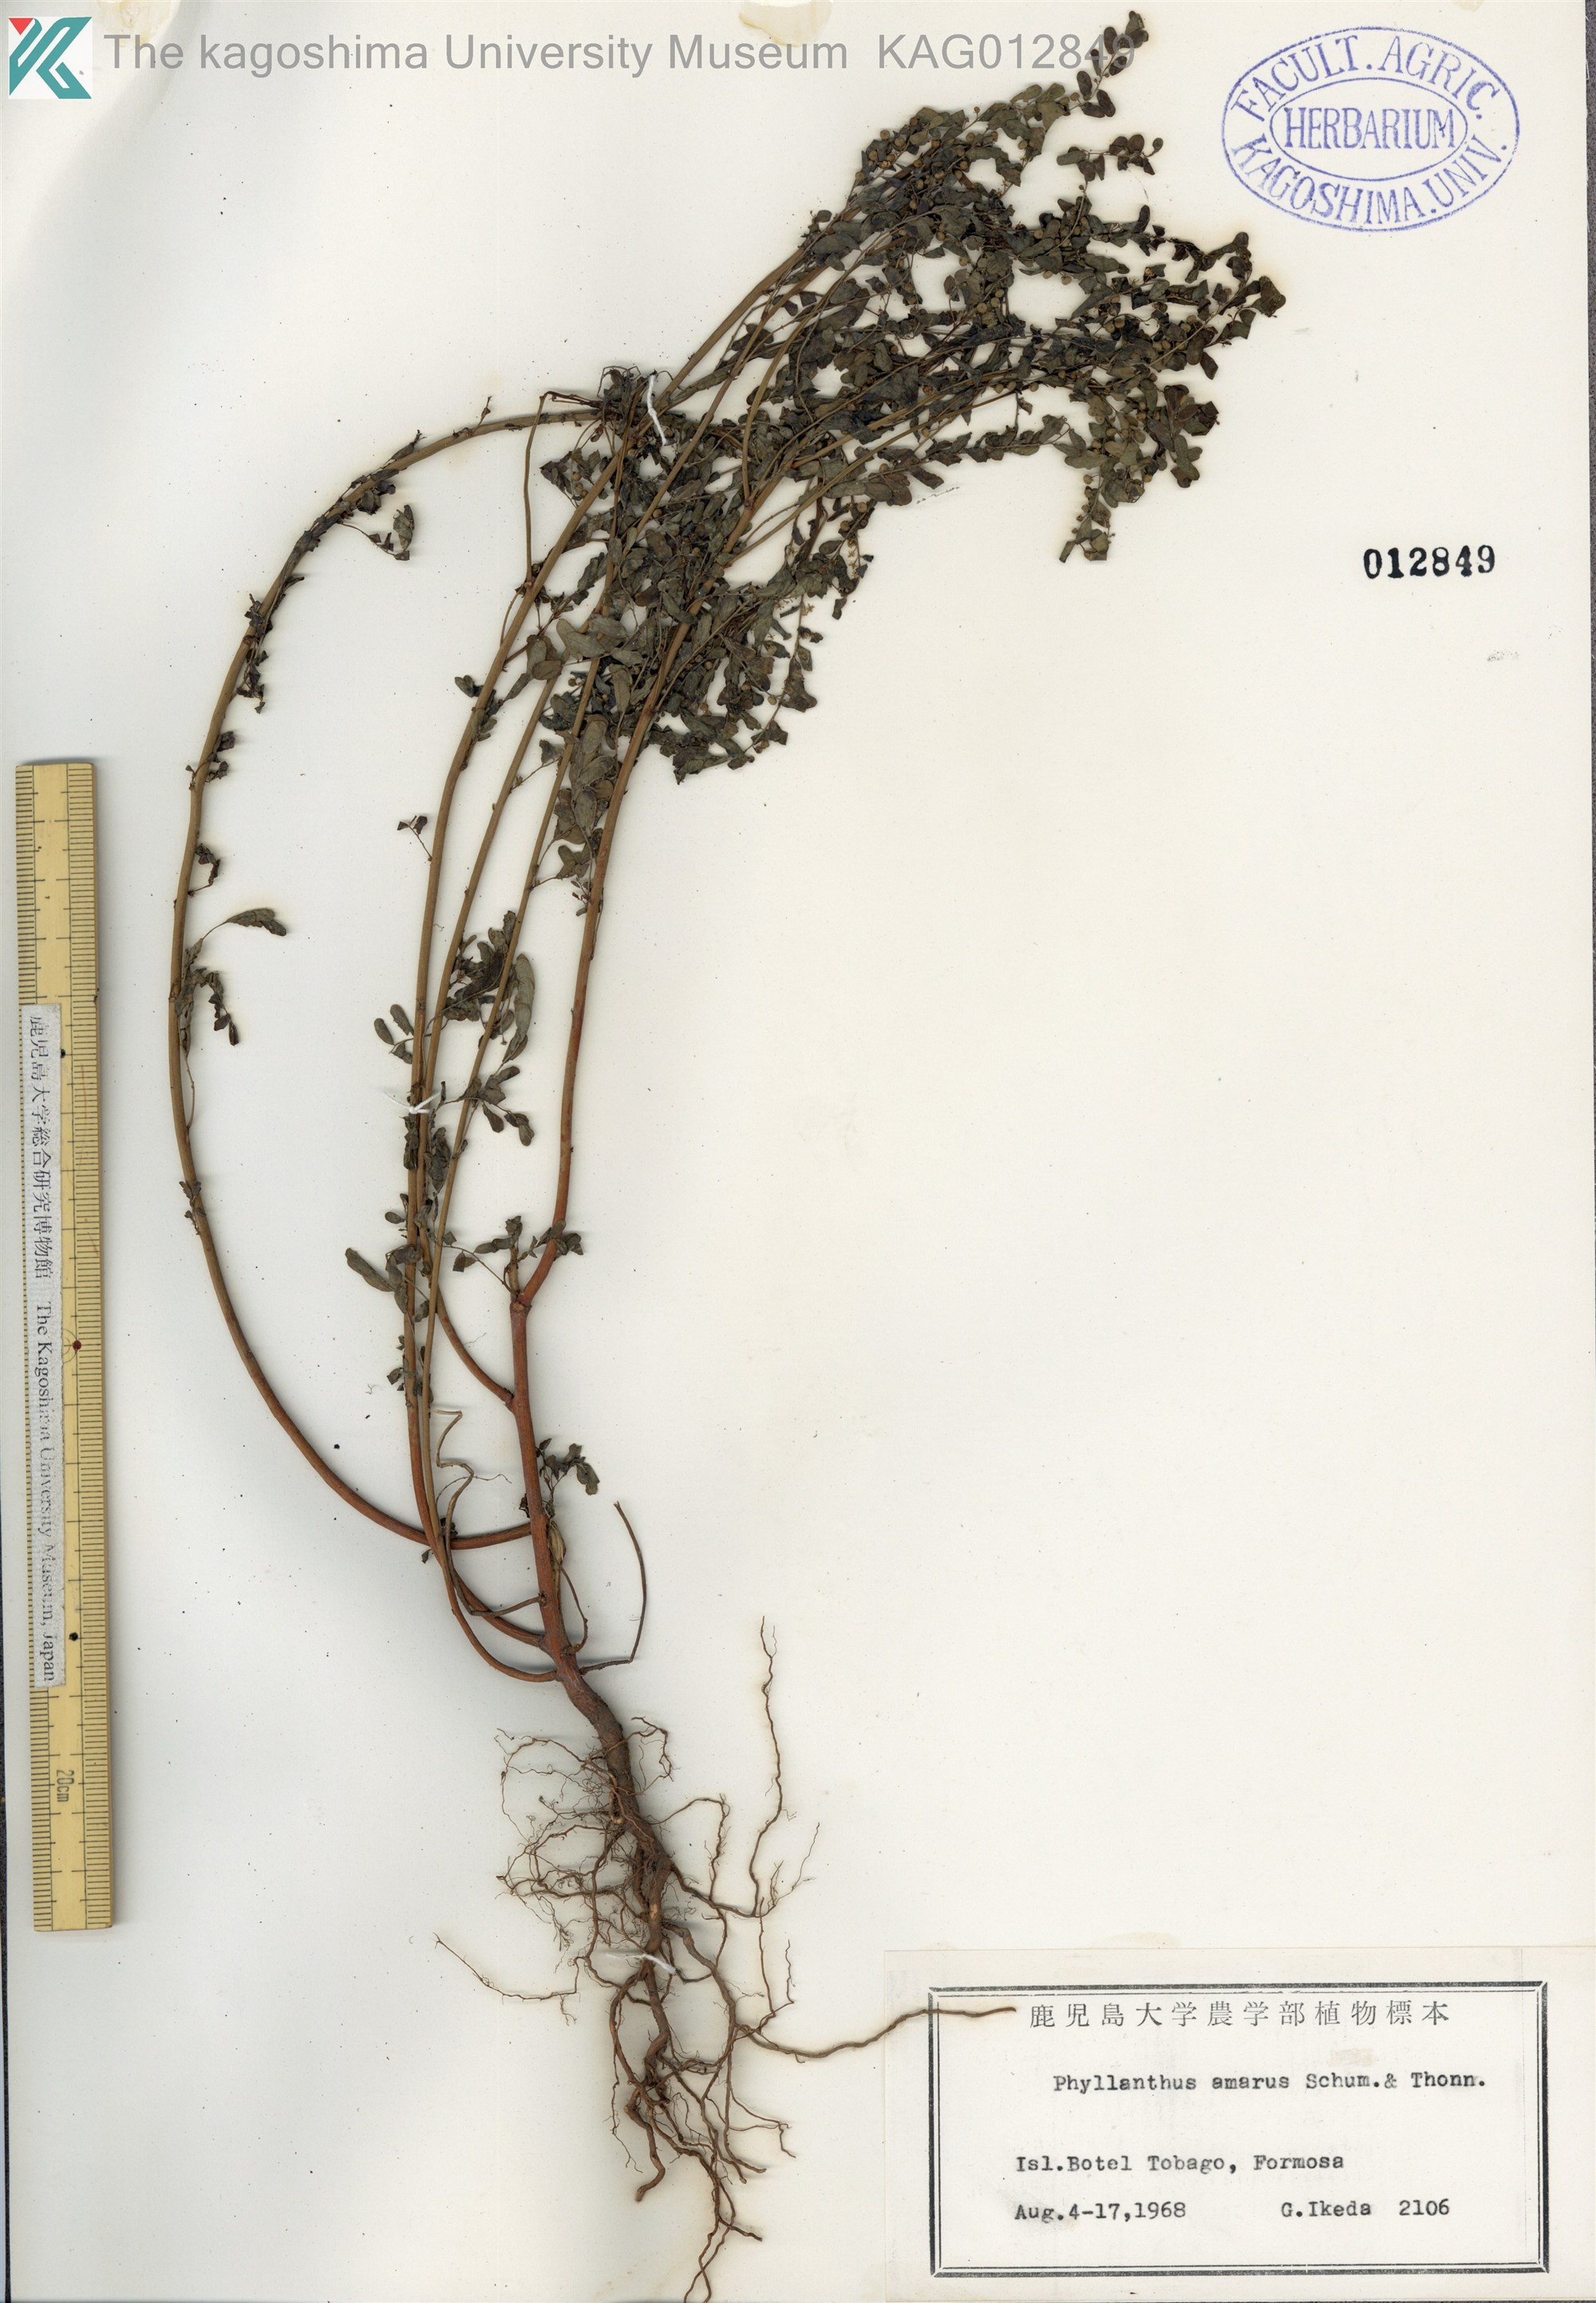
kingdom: Plantae
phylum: Tracheophyta
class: Magnoliopsida
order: Malpighiales
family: Phyllanthaceae
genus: Phyllanthus
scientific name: Phyllanthus amarus
